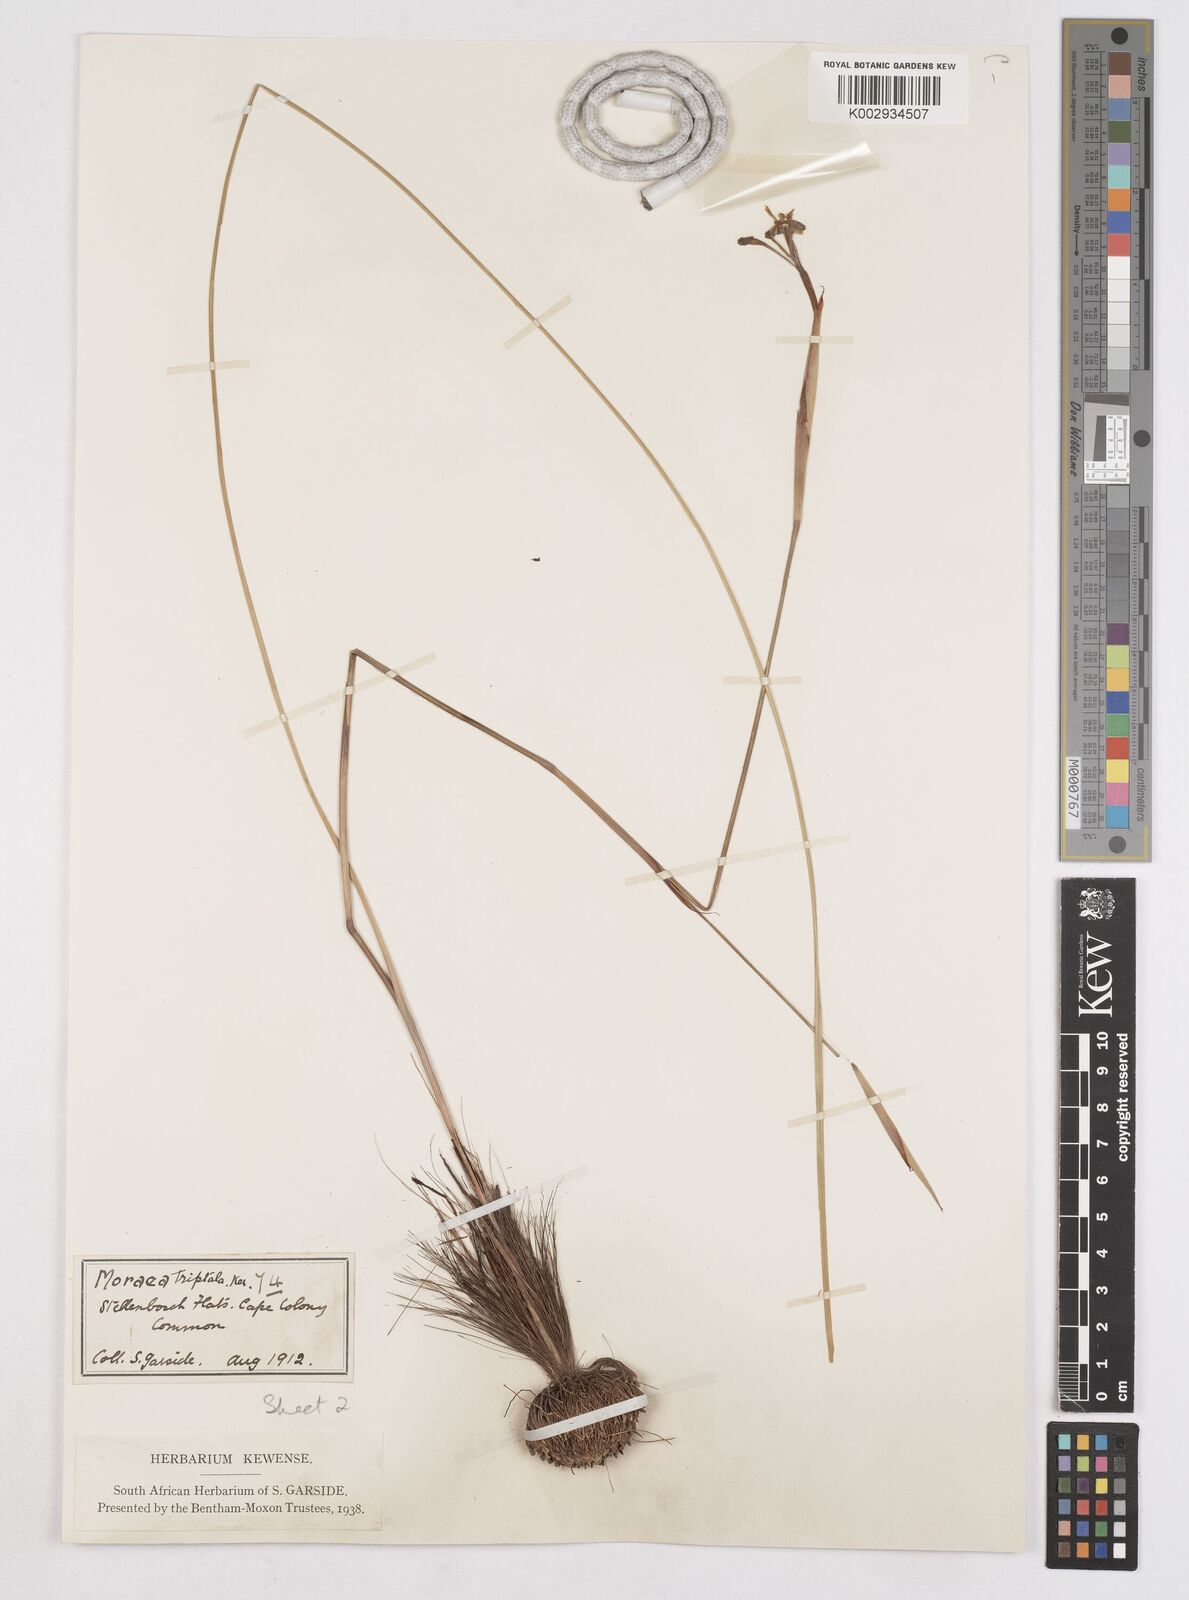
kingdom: Plantae
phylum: Tracheophyta
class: Liliopsida
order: Asparagales
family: Iridaceae
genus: Moraea
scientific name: Moraea tripetala
